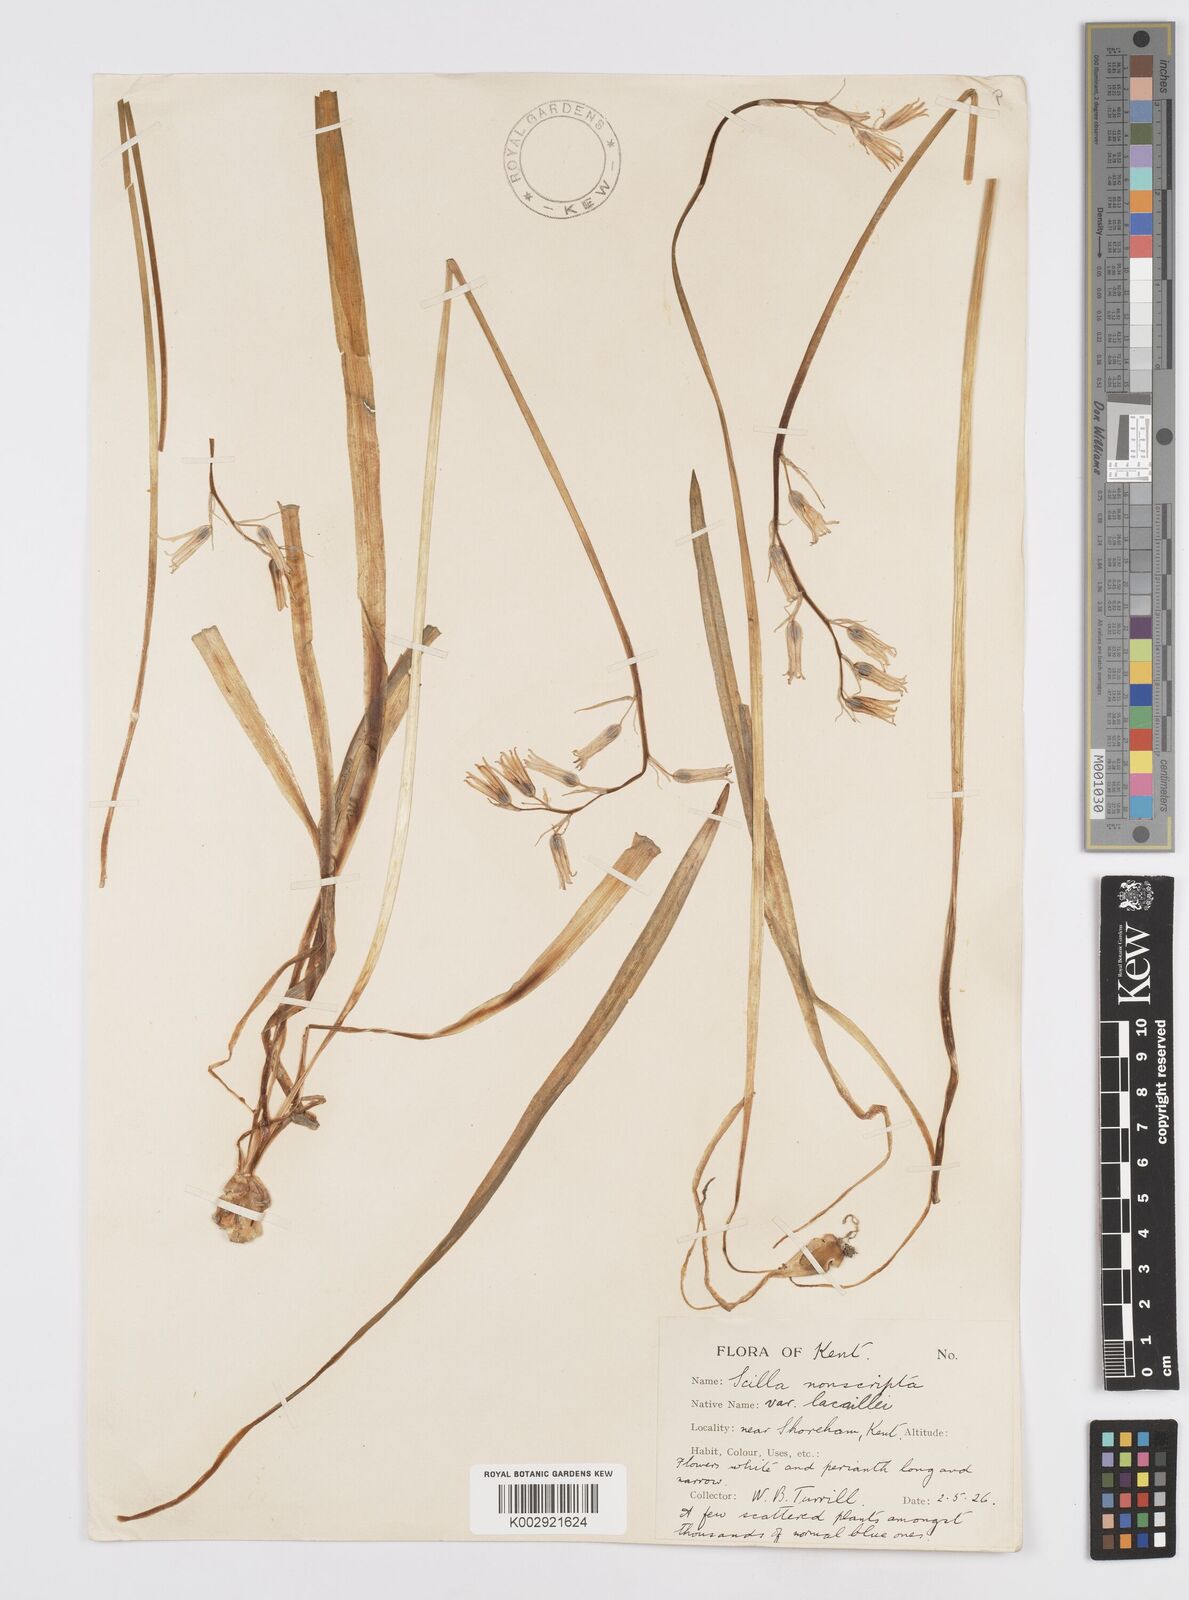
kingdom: Plantae
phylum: Tracheophyta
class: Liliopsida
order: Asparagales
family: Asparagaceae
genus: Hyacinthoides
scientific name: Hyacinthoides non-scripta
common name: Bluebell
